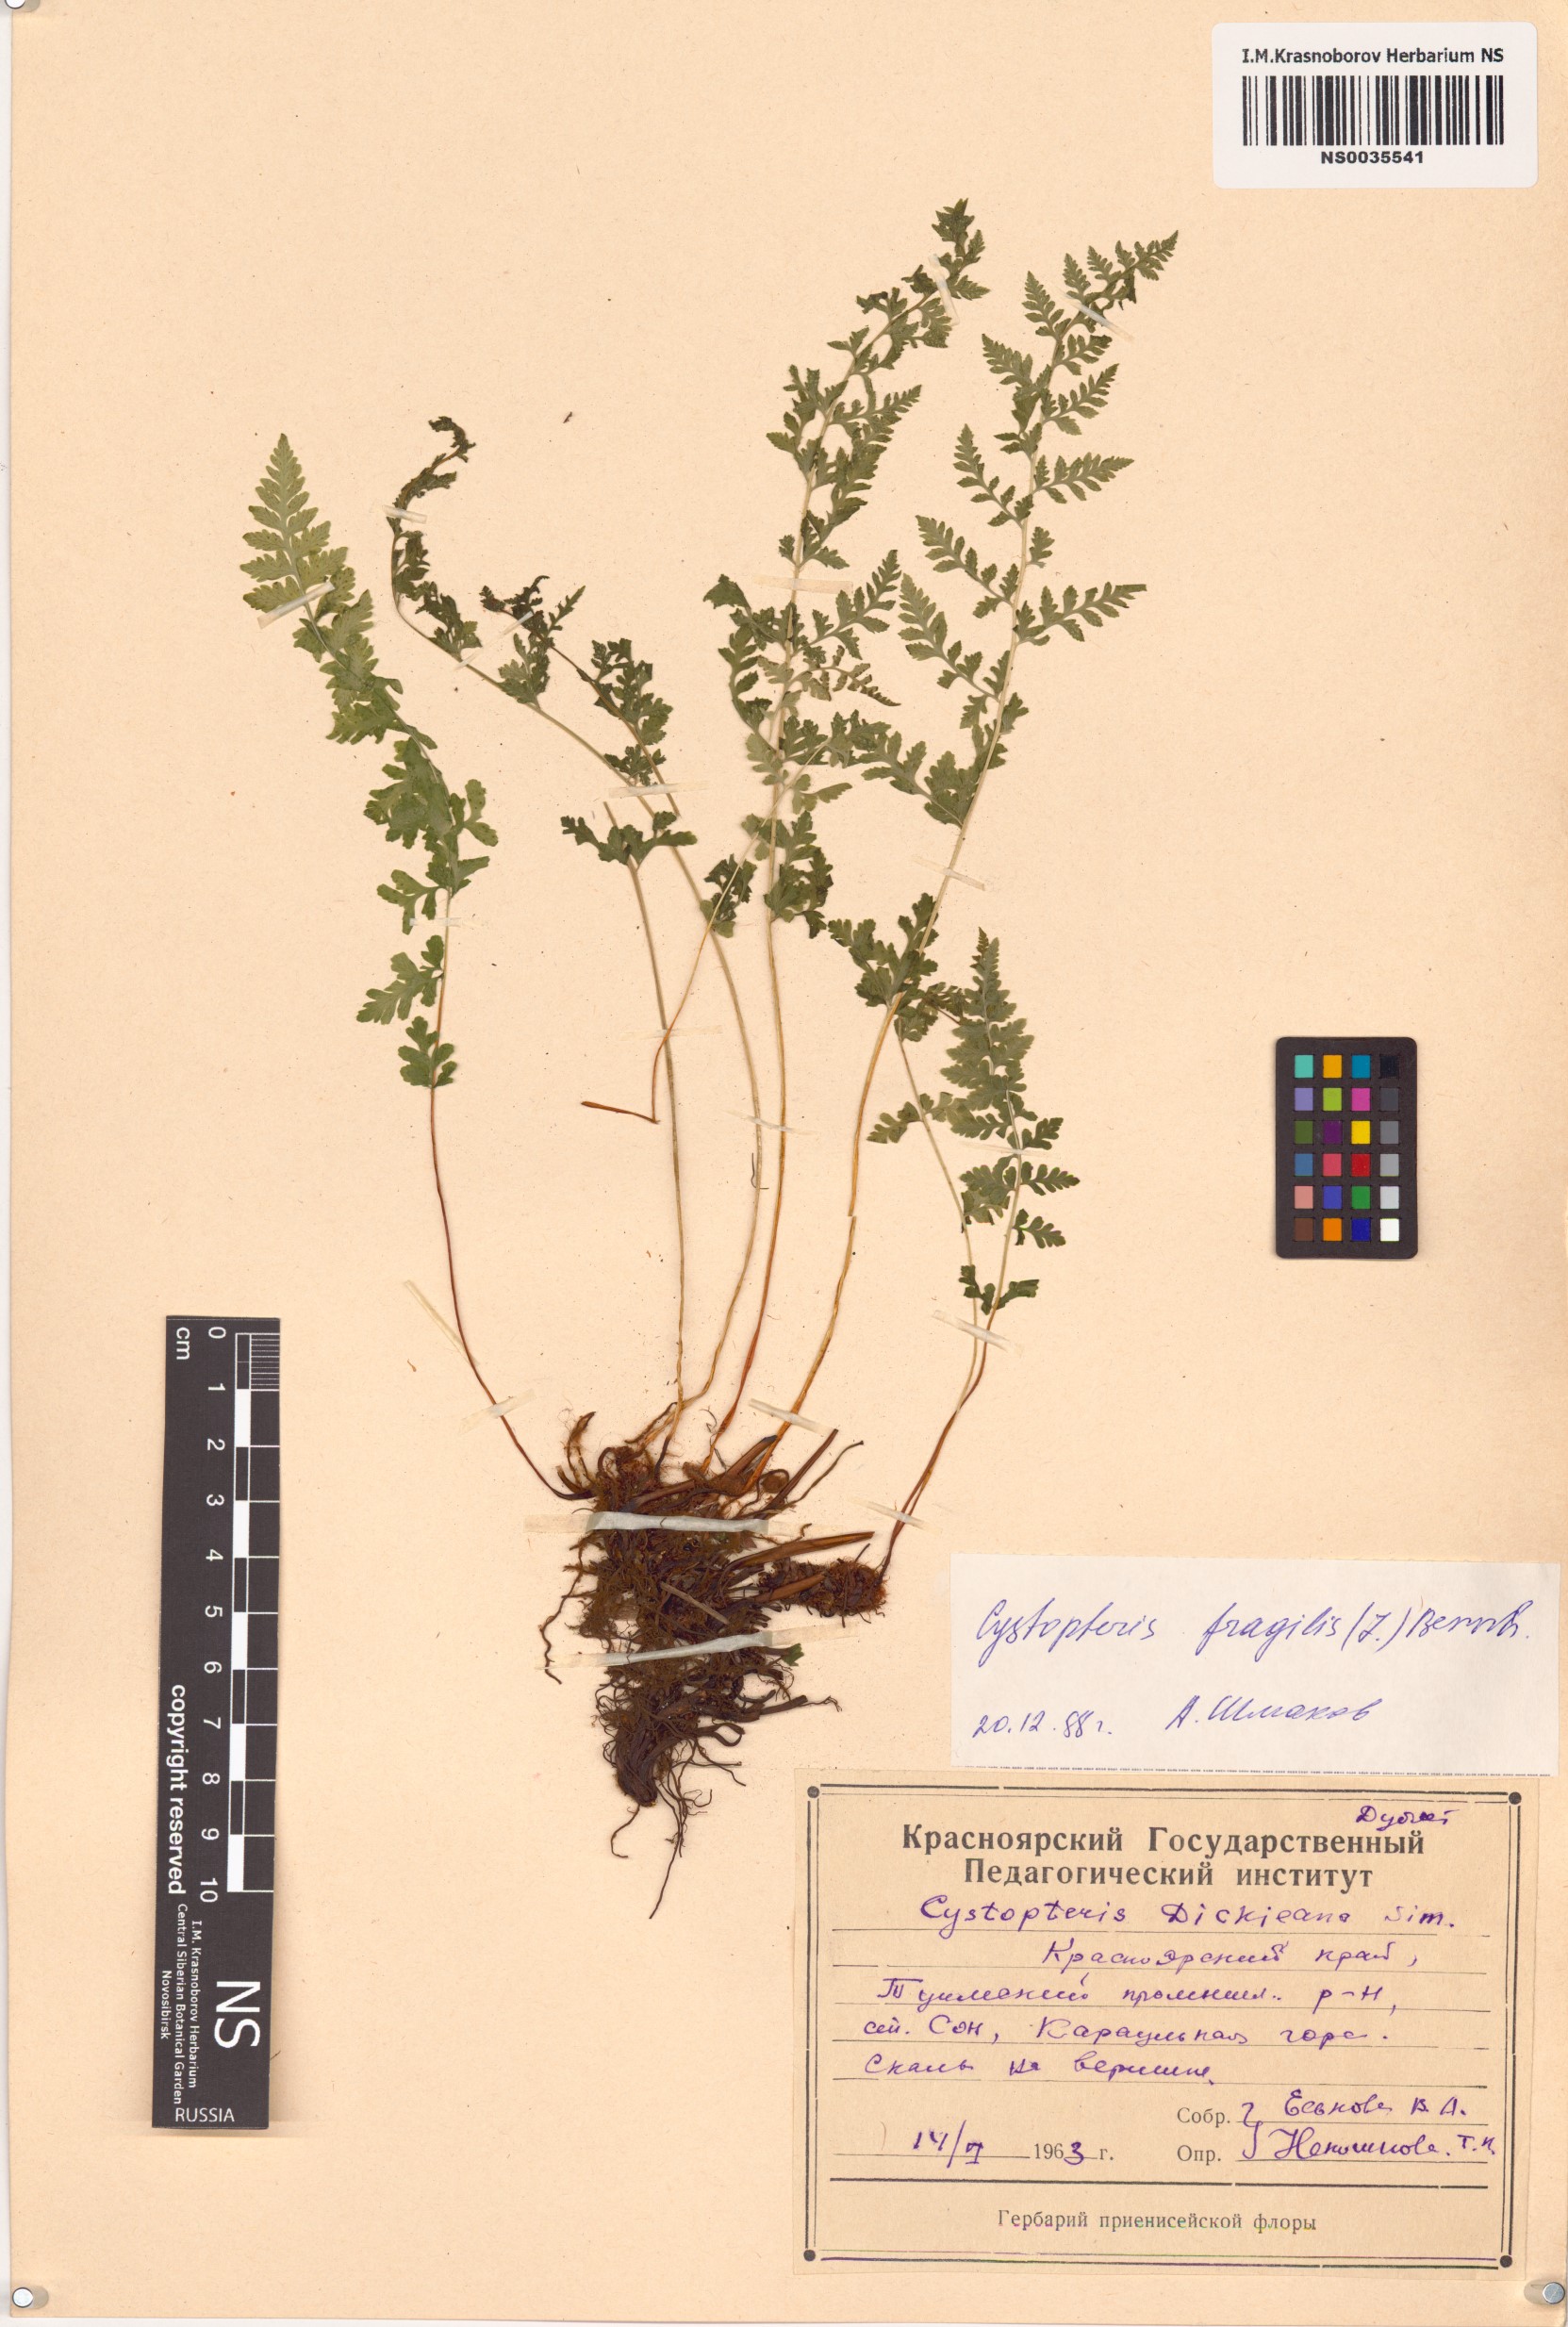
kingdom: Plantae
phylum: Tracheophyta
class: Polypodiopsida
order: Polypodiales
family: Cystopteridaceae
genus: Cystopteris
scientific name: Cystopteris fragilis
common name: Brittle bladder fern
